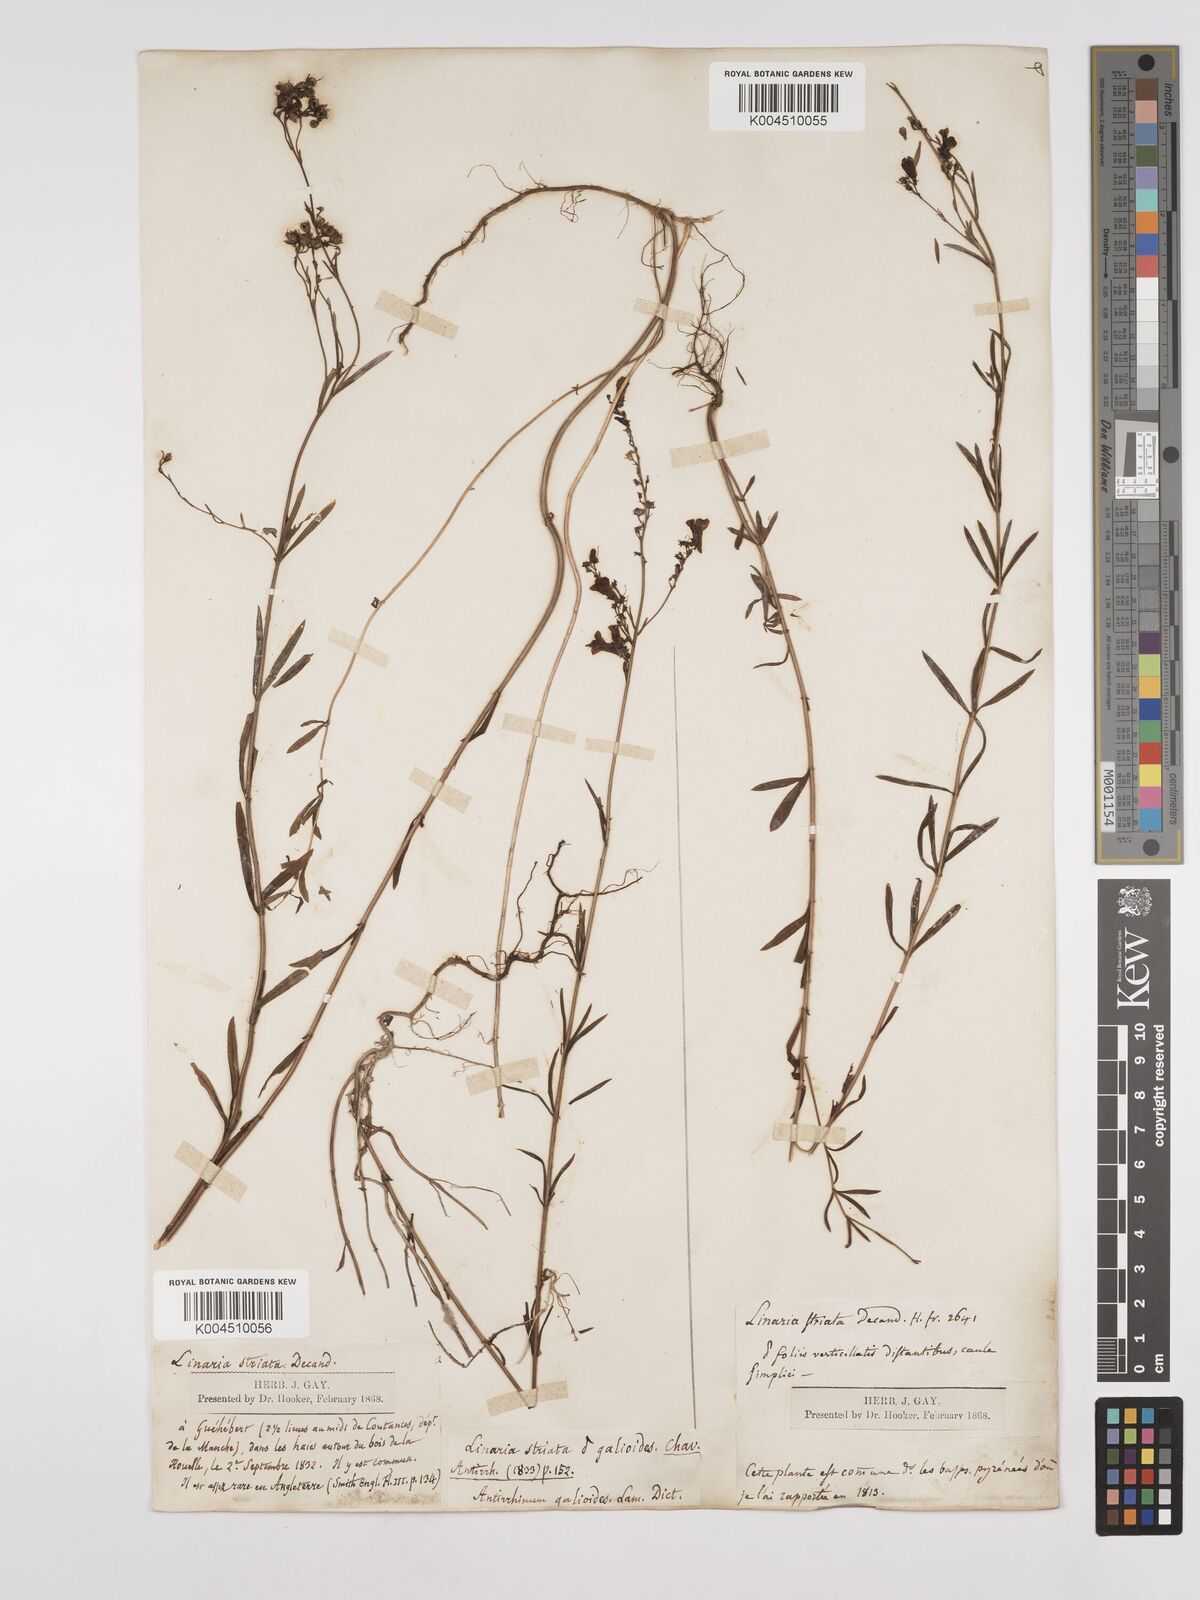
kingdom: Plantae
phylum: Tracheophyta
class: Magnoliopsida
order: Lamiales
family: Plantaginaceae
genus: Linaria
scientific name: Linaria repens
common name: Pale toadflax
